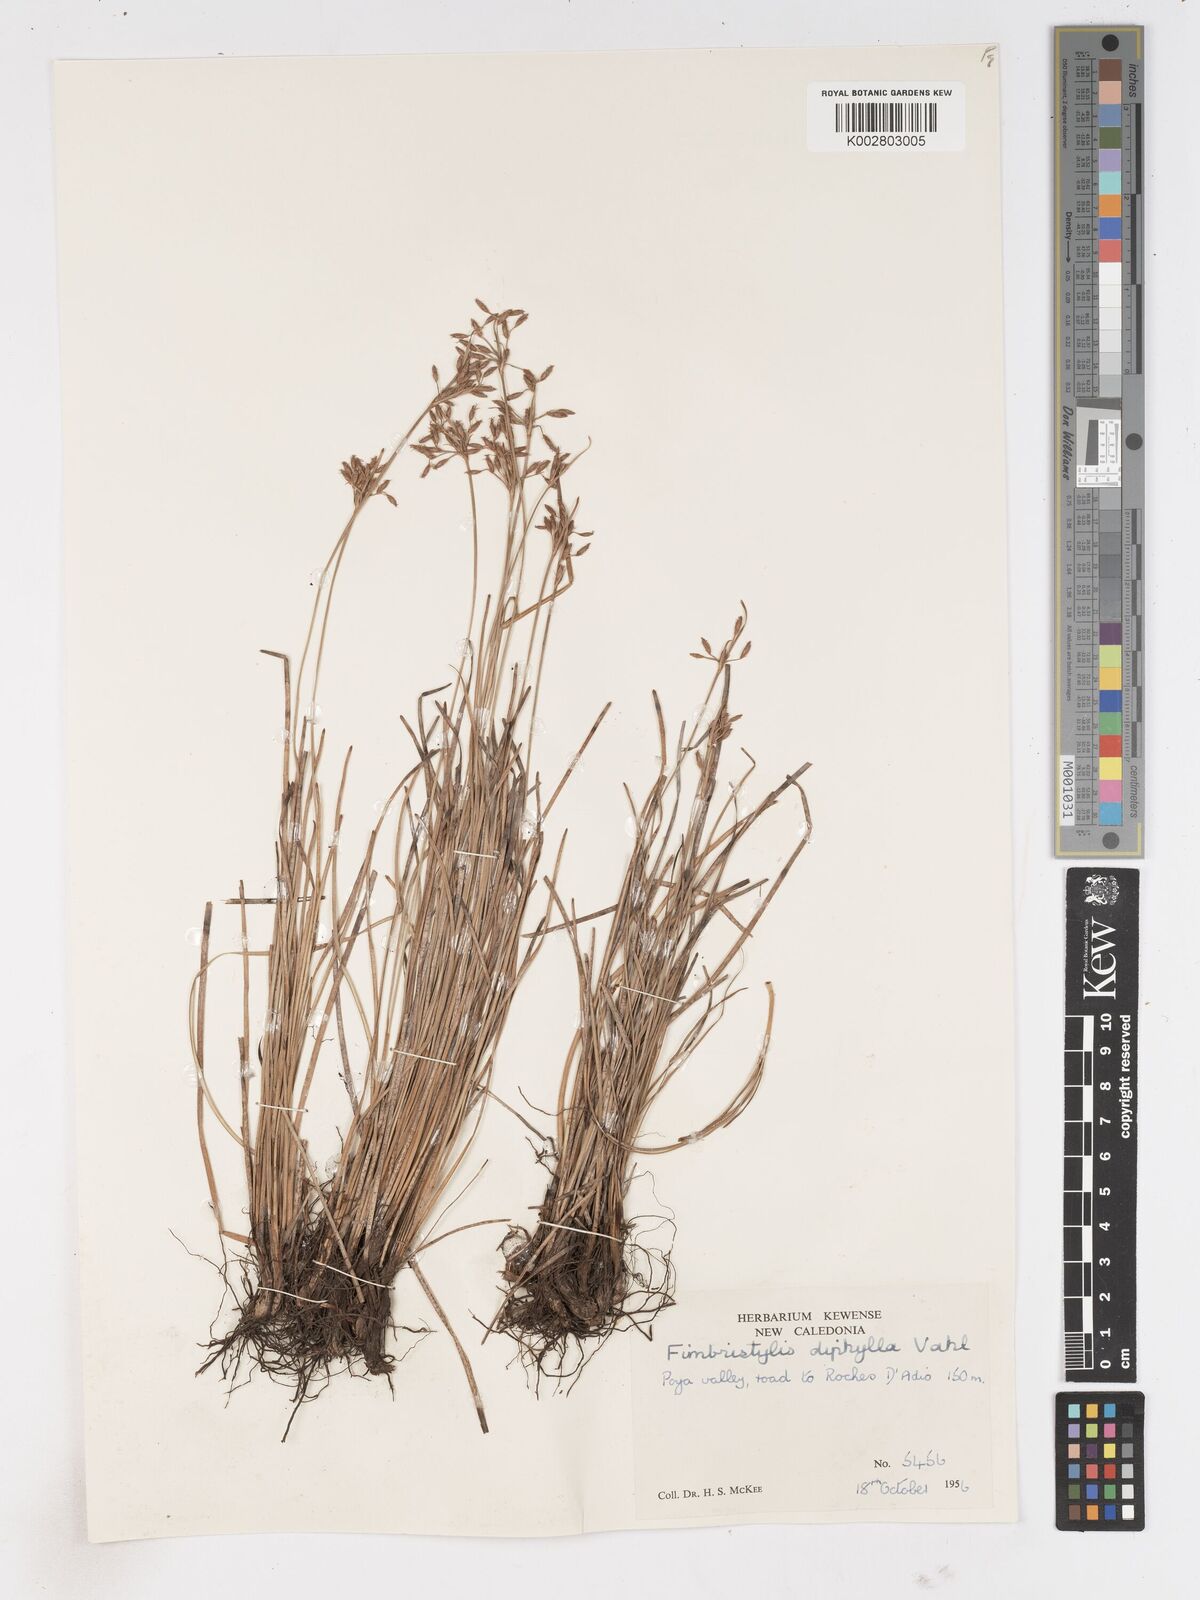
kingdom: Plantae
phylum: Tracheophyta
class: Liliopsida
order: Poales
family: Cyperaceae
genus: Fimbristylis
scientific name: Fimbristylis dichotoma
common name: Forked fimbry
